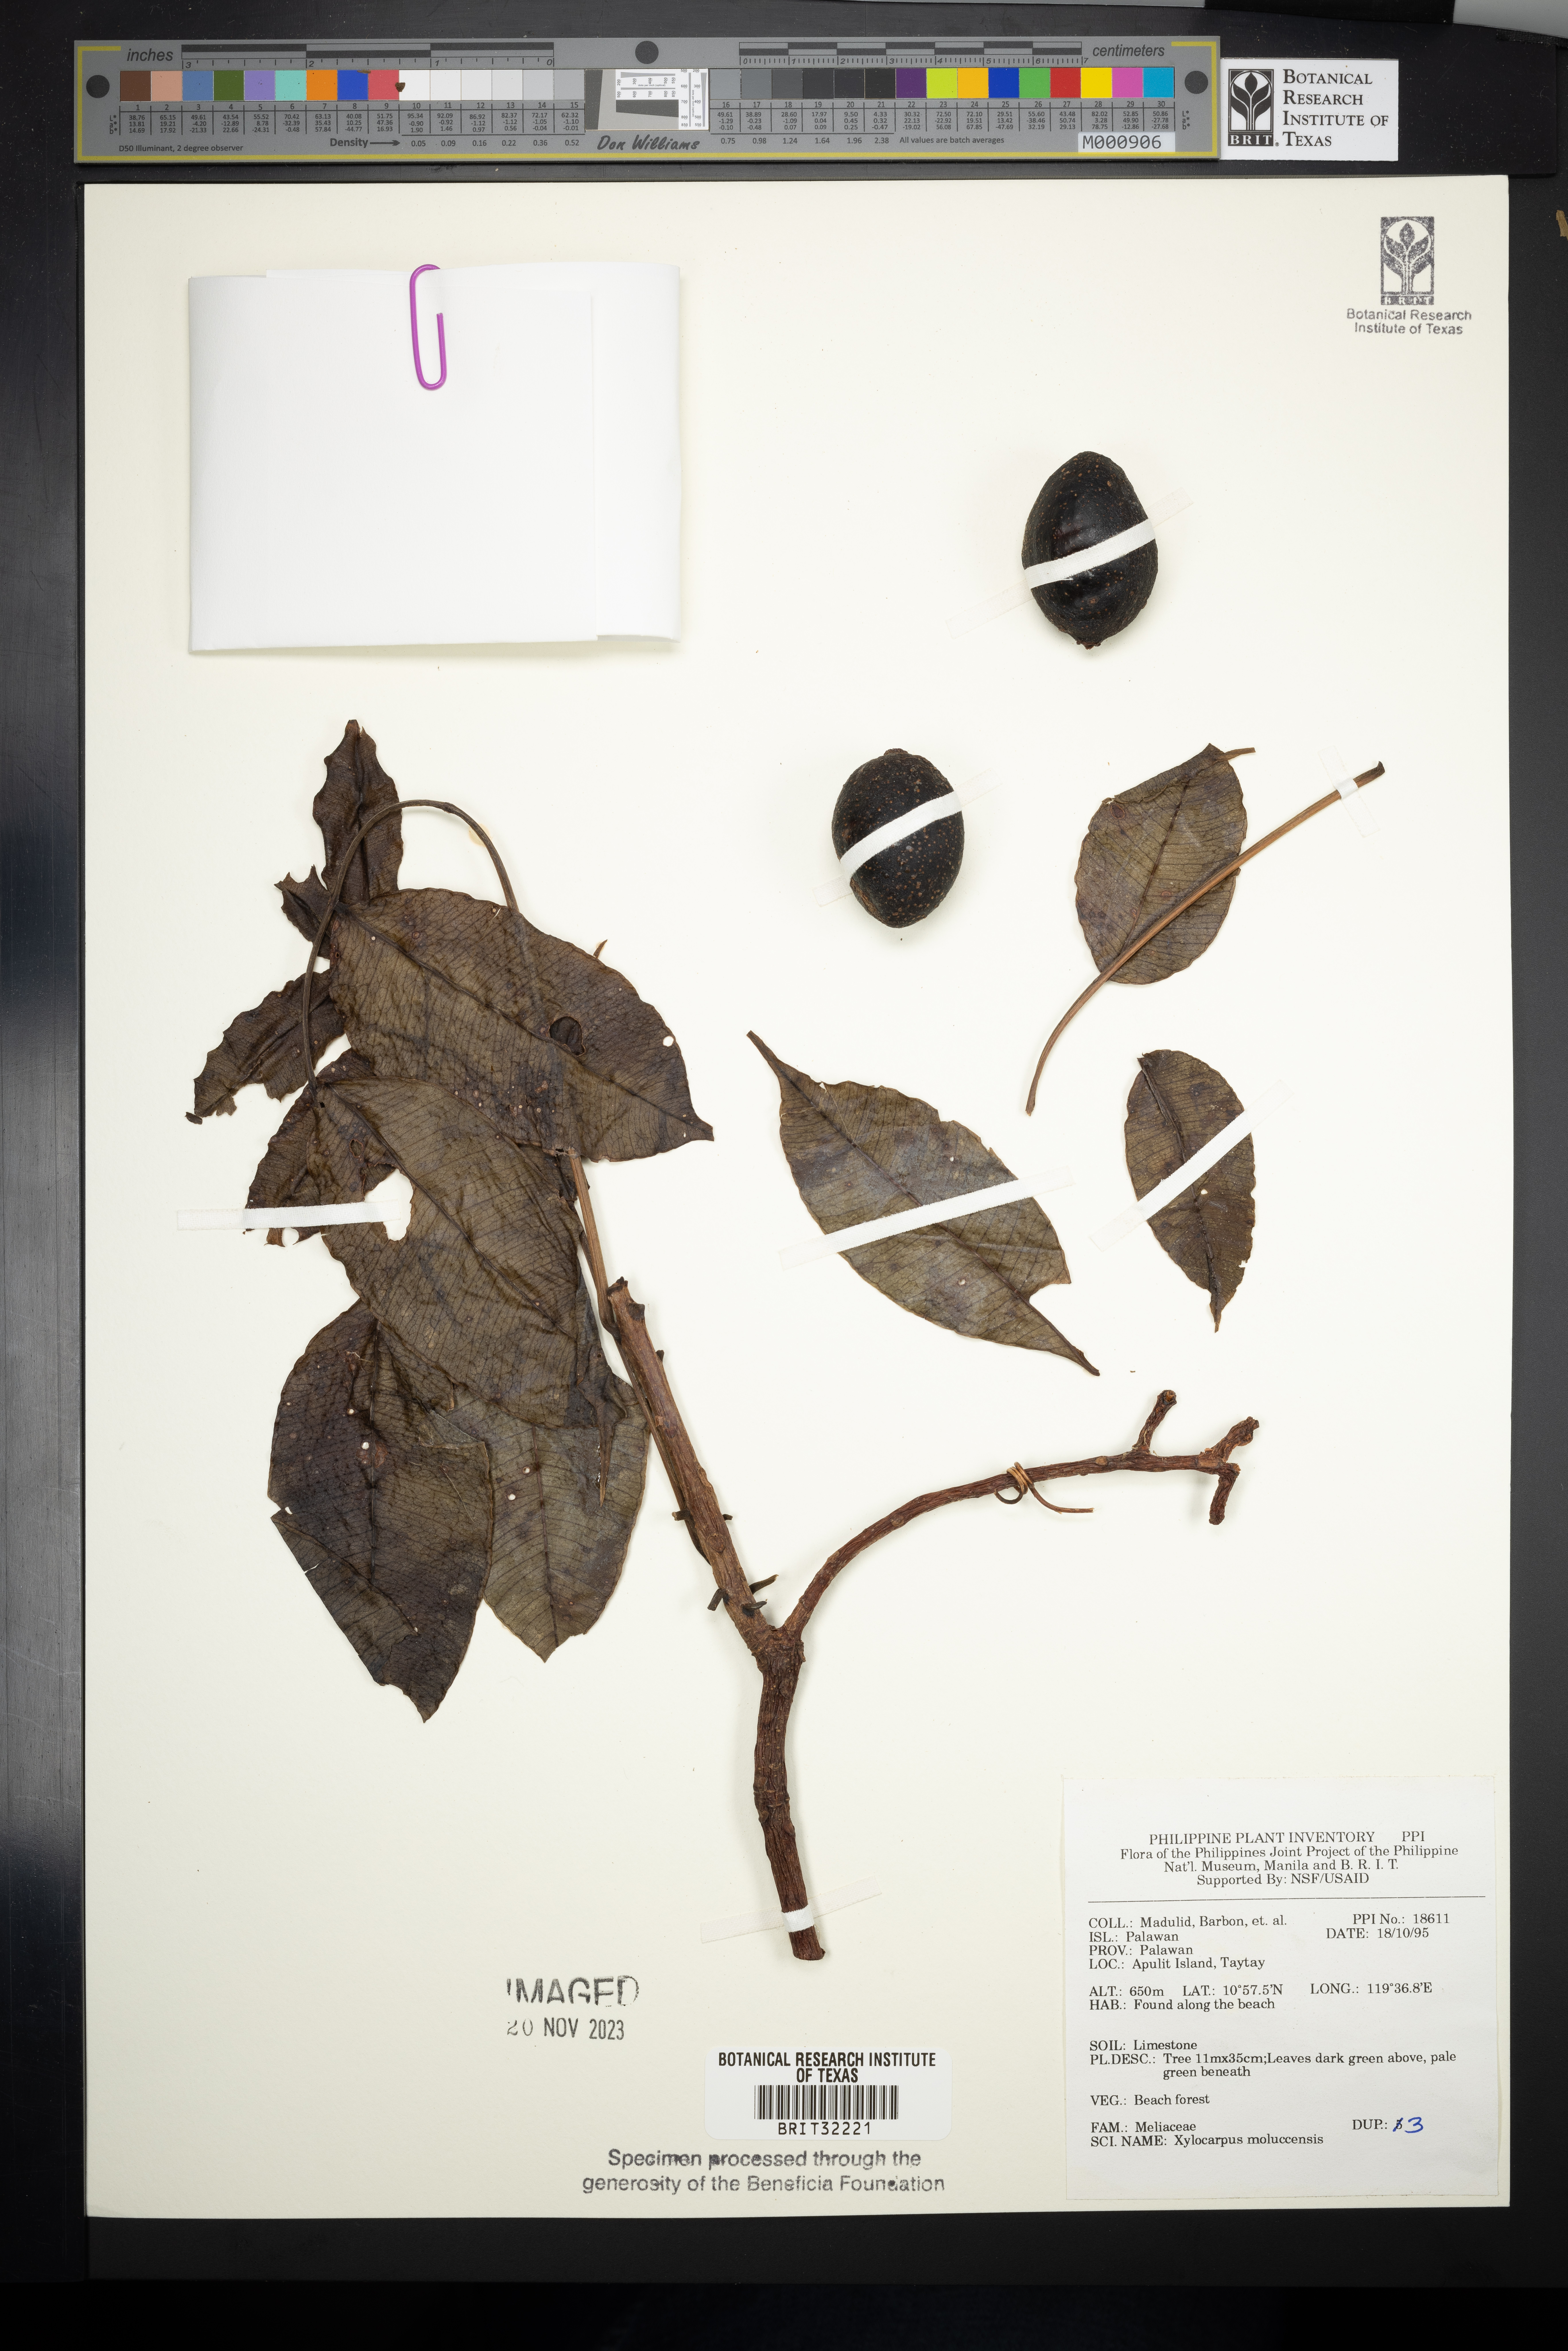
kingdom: Plantae
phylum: Tracheophyta
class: Magnoliopsida
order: Sapindales
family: Meliaceae
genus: Xylocarpus
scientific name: Xylocarpus moluccensis
